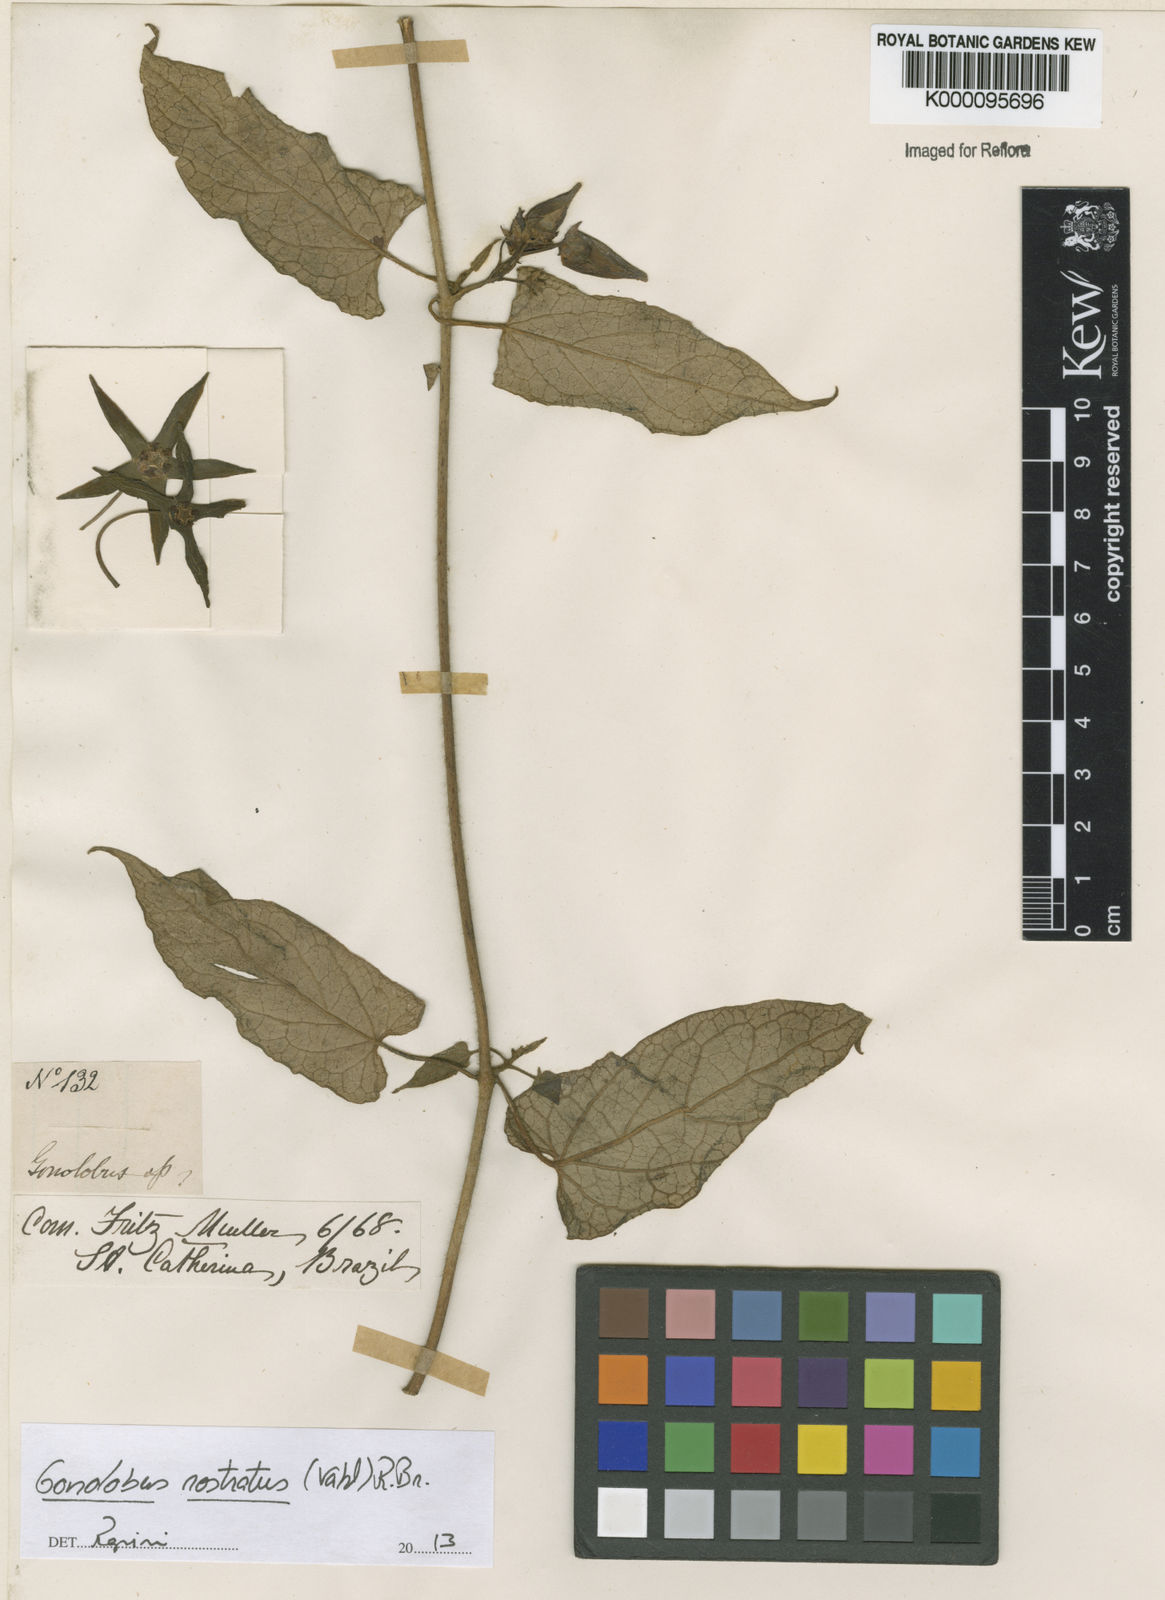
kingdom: Plantae
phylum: Tracheophyta
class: Magnoliopsida
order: Gentianales
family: Apocynaceae
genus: Gonolobus
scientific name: Gonolobus rostratus
